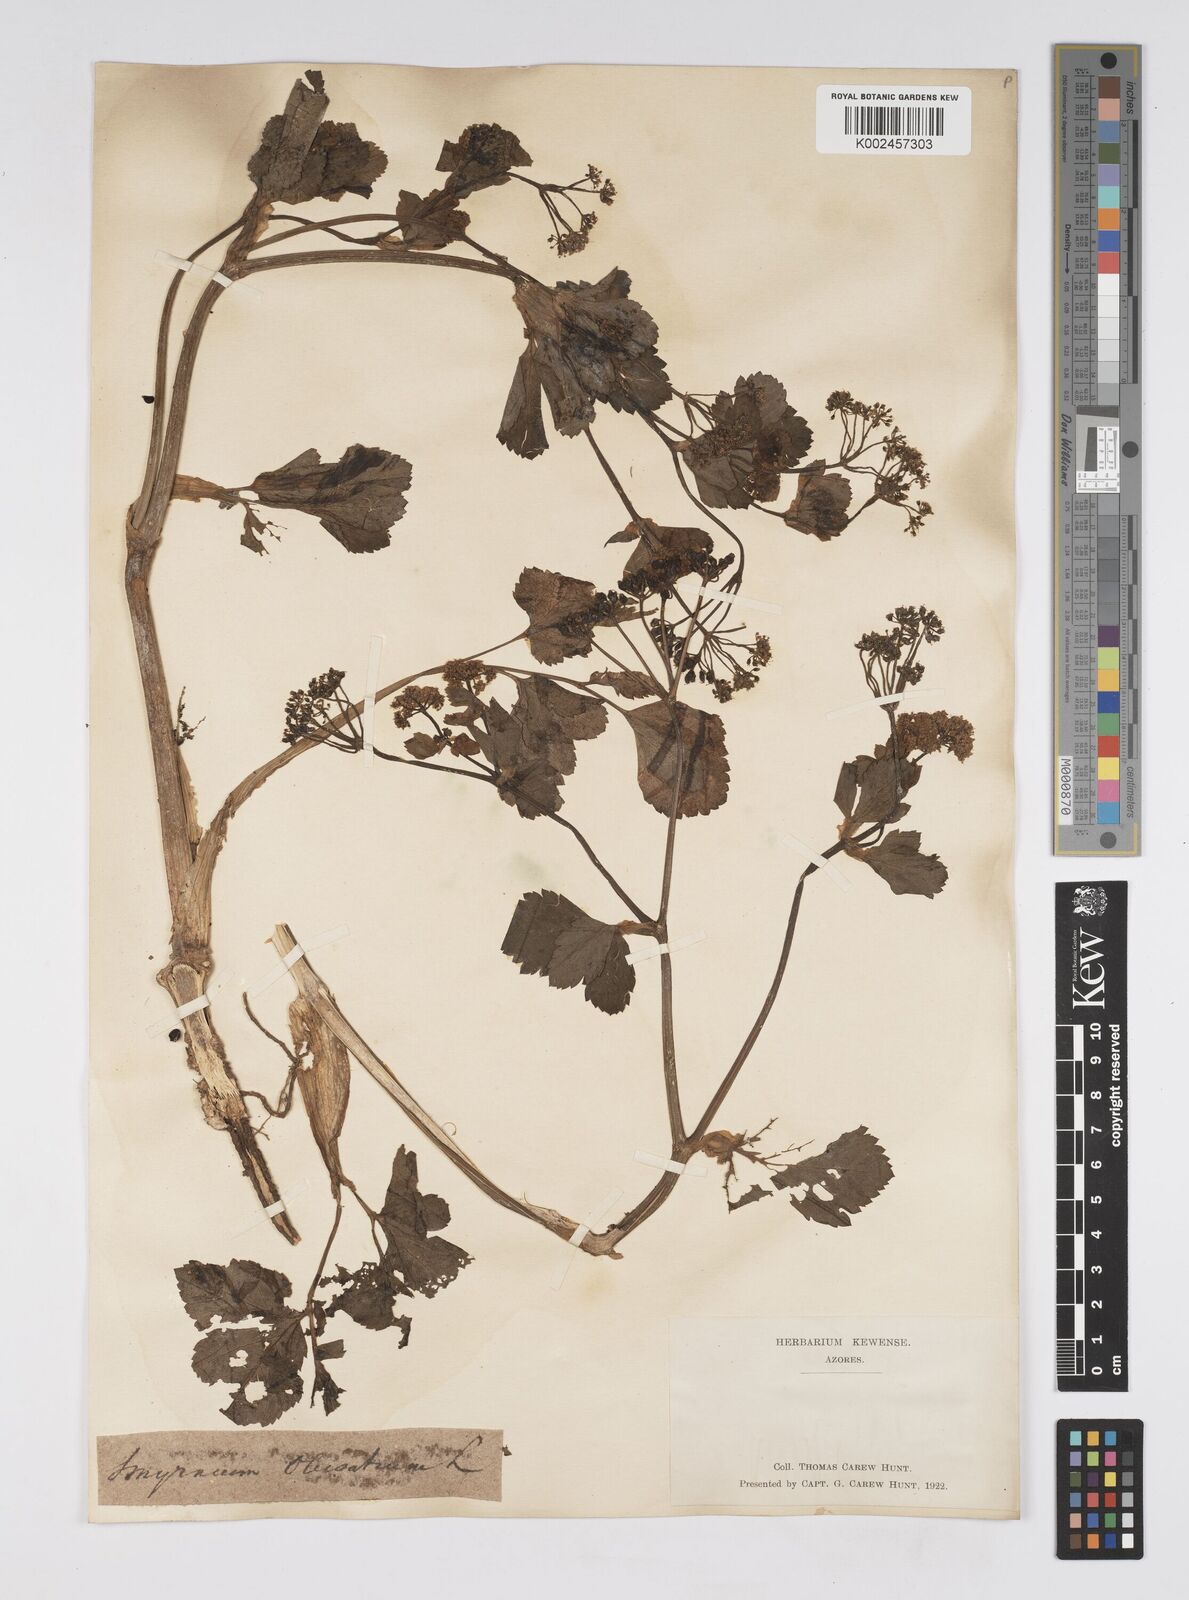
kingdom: Plantae
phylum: Tracheophyta
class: Magnoliopsida
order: Apiales
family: Apiaceae
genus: Smyrnium
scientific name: Smyrnium olusatrum
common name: Alexanders
